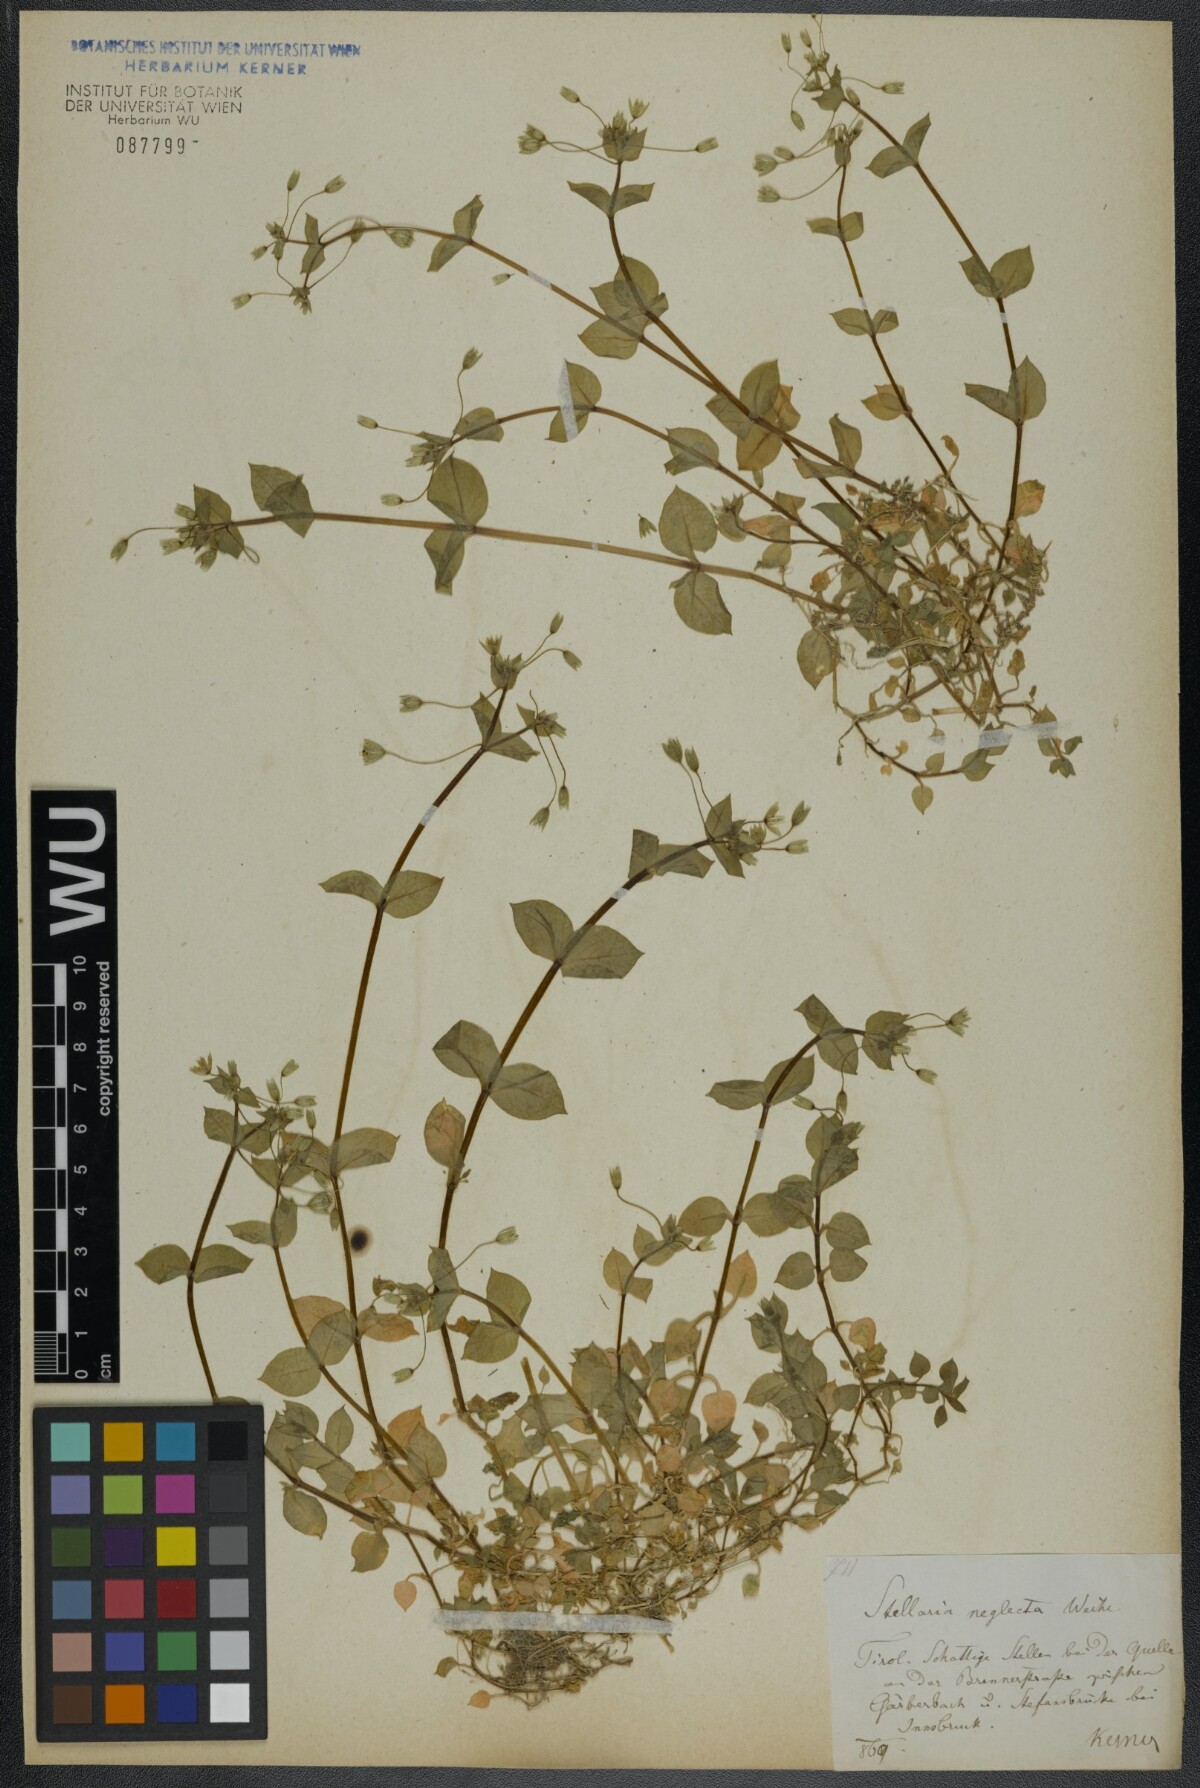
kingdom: Plantae
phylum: Tracheophyta
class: Magnoliopsida
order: Caryophyllales
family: Caryophyllaceae
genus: Stellaria
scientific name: Stellaria neglecta
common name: Greater chickweed
